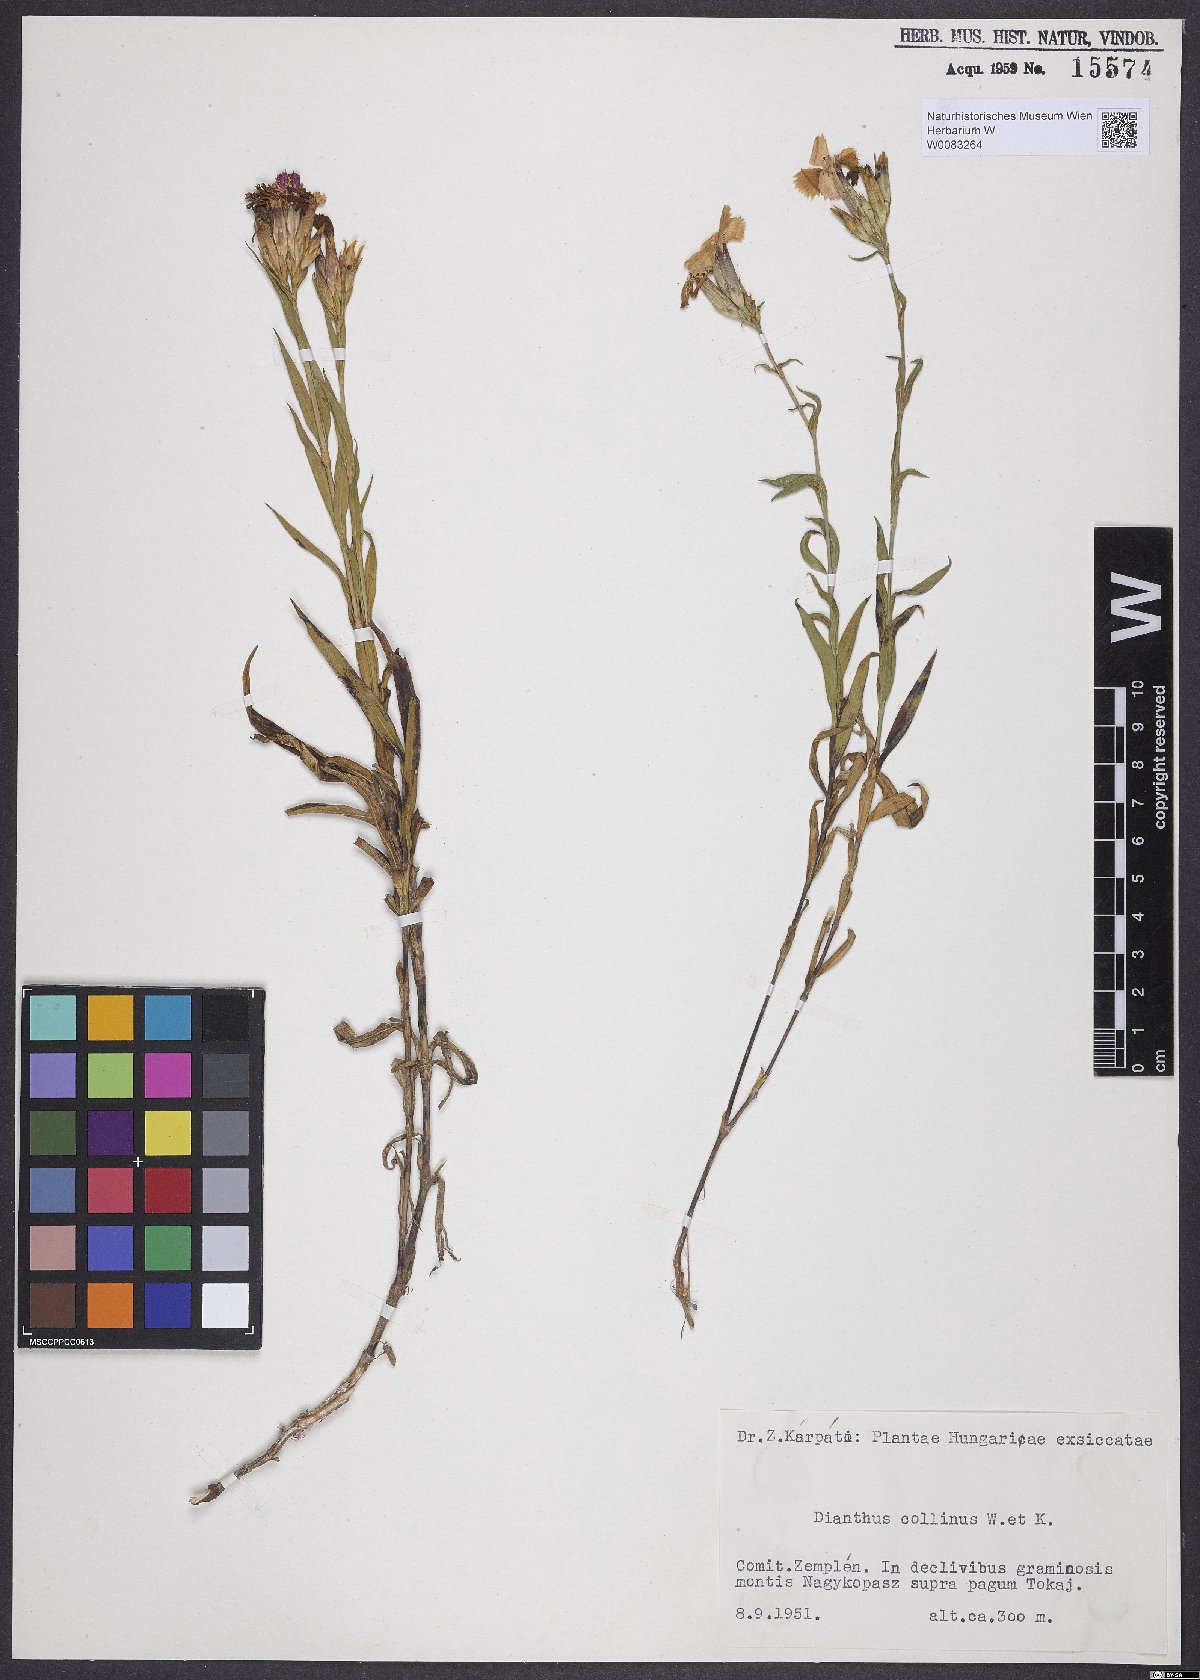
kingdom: Plantae
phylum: Tracheophyta
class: Magnoliopsida
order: Caryophyllales
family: Caryophyllaceae
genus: Dianthus
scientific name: Dianthus collinus
